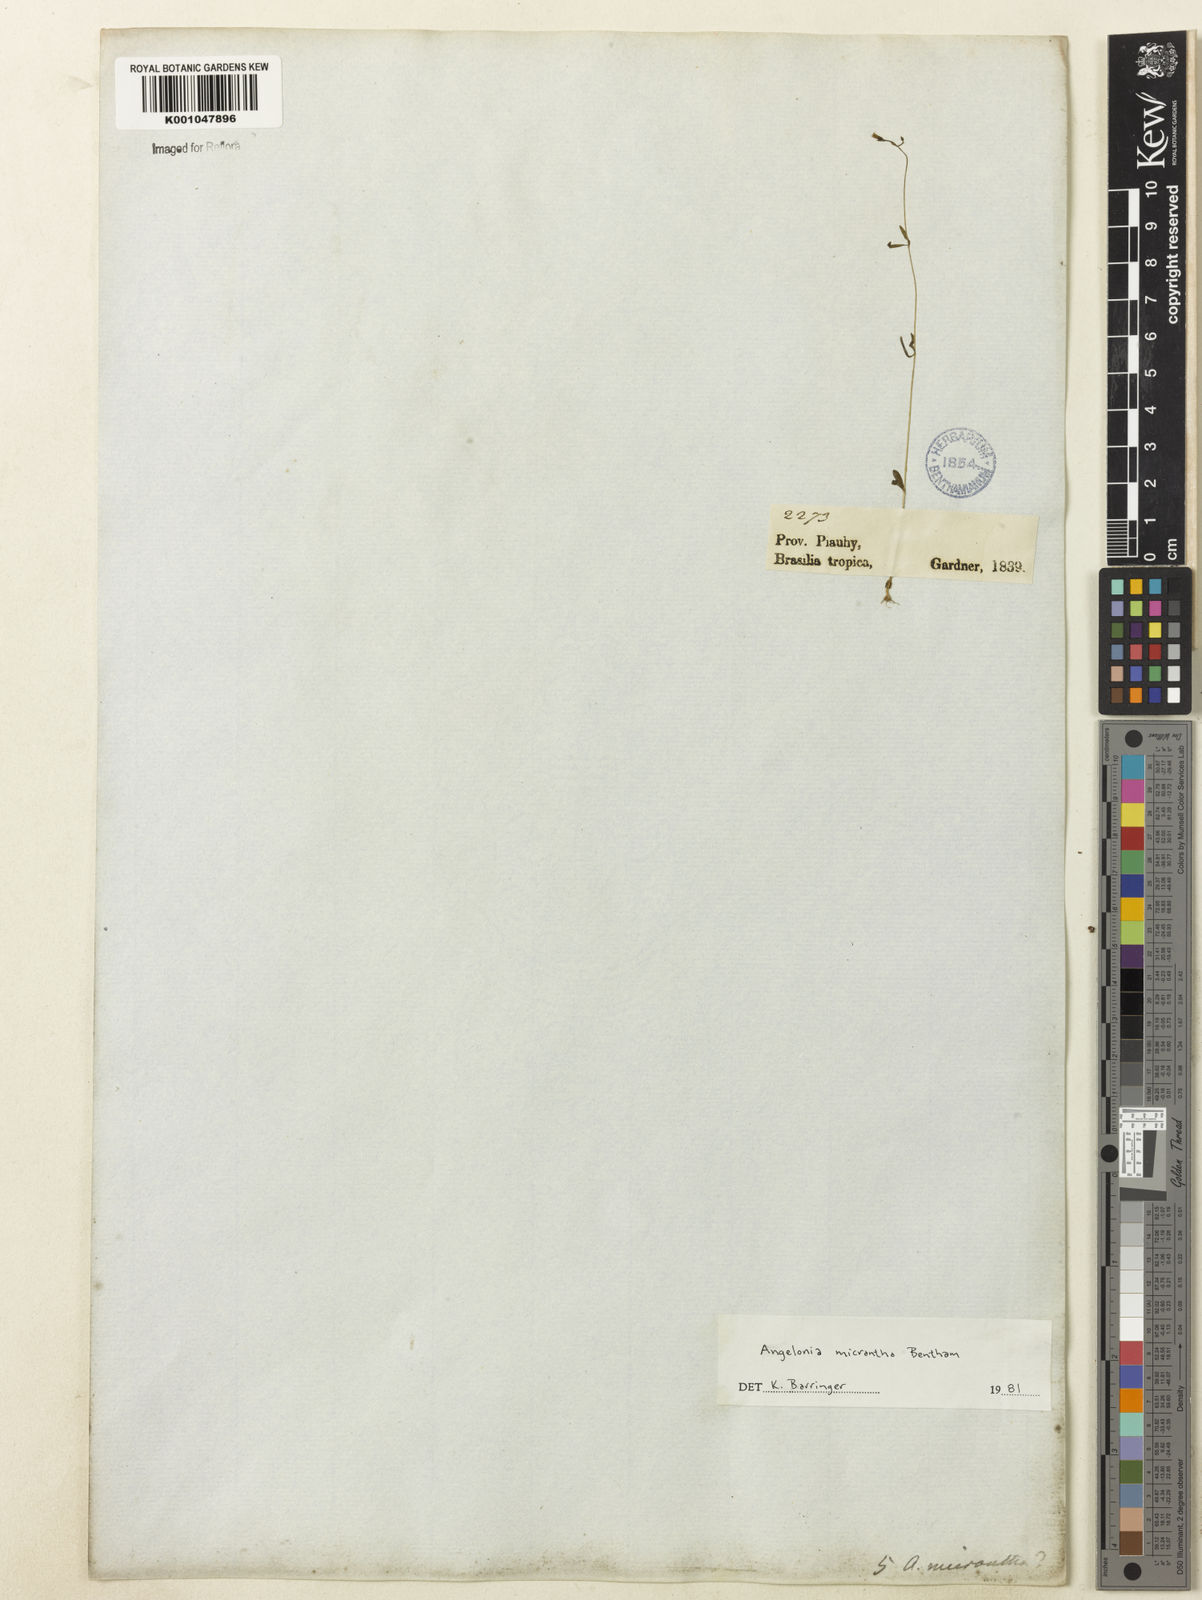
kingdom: Plantae
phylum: Tracheophyta
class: Magnoliopsida
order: Lamiales
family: Plantaginaceae
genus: Angelonia
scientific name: Angelonia micrantha
